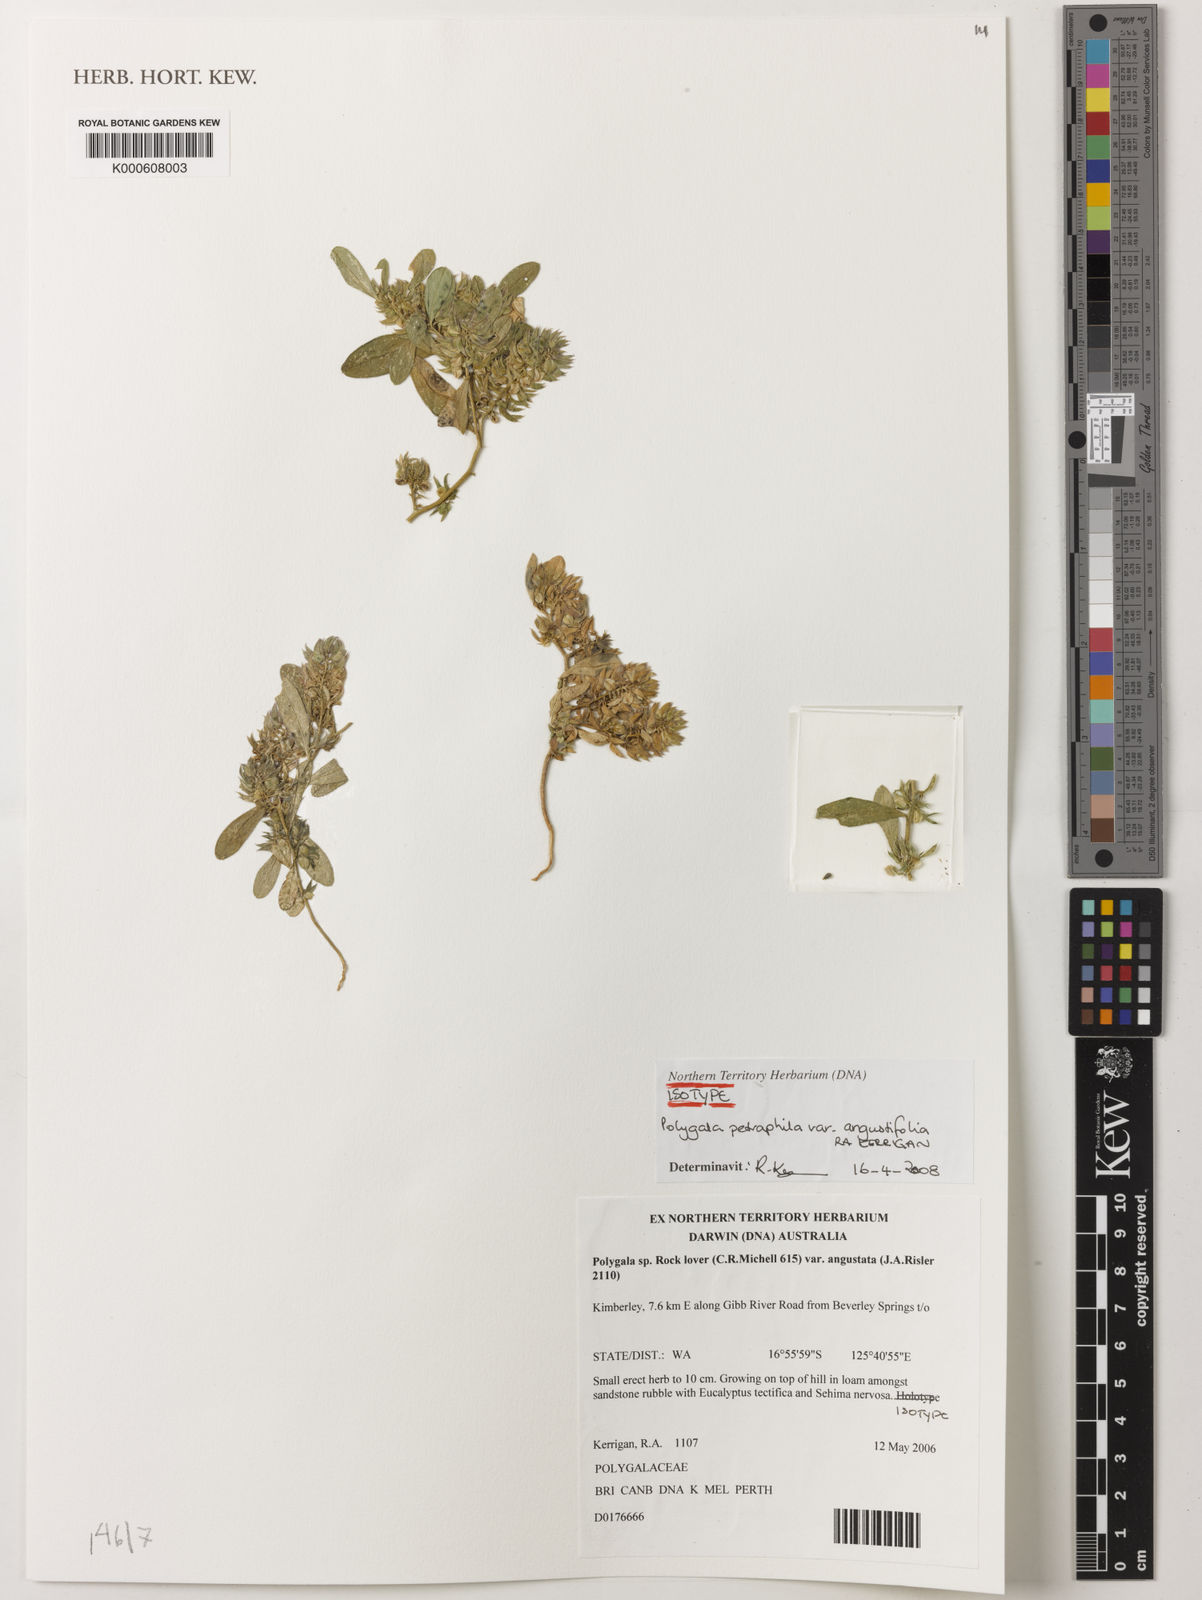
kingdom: Plantae
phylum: Tracheophyta
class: Magnoliopsida
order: Fabales
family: Polygalaceae
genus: Polygala
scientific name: Polygala
